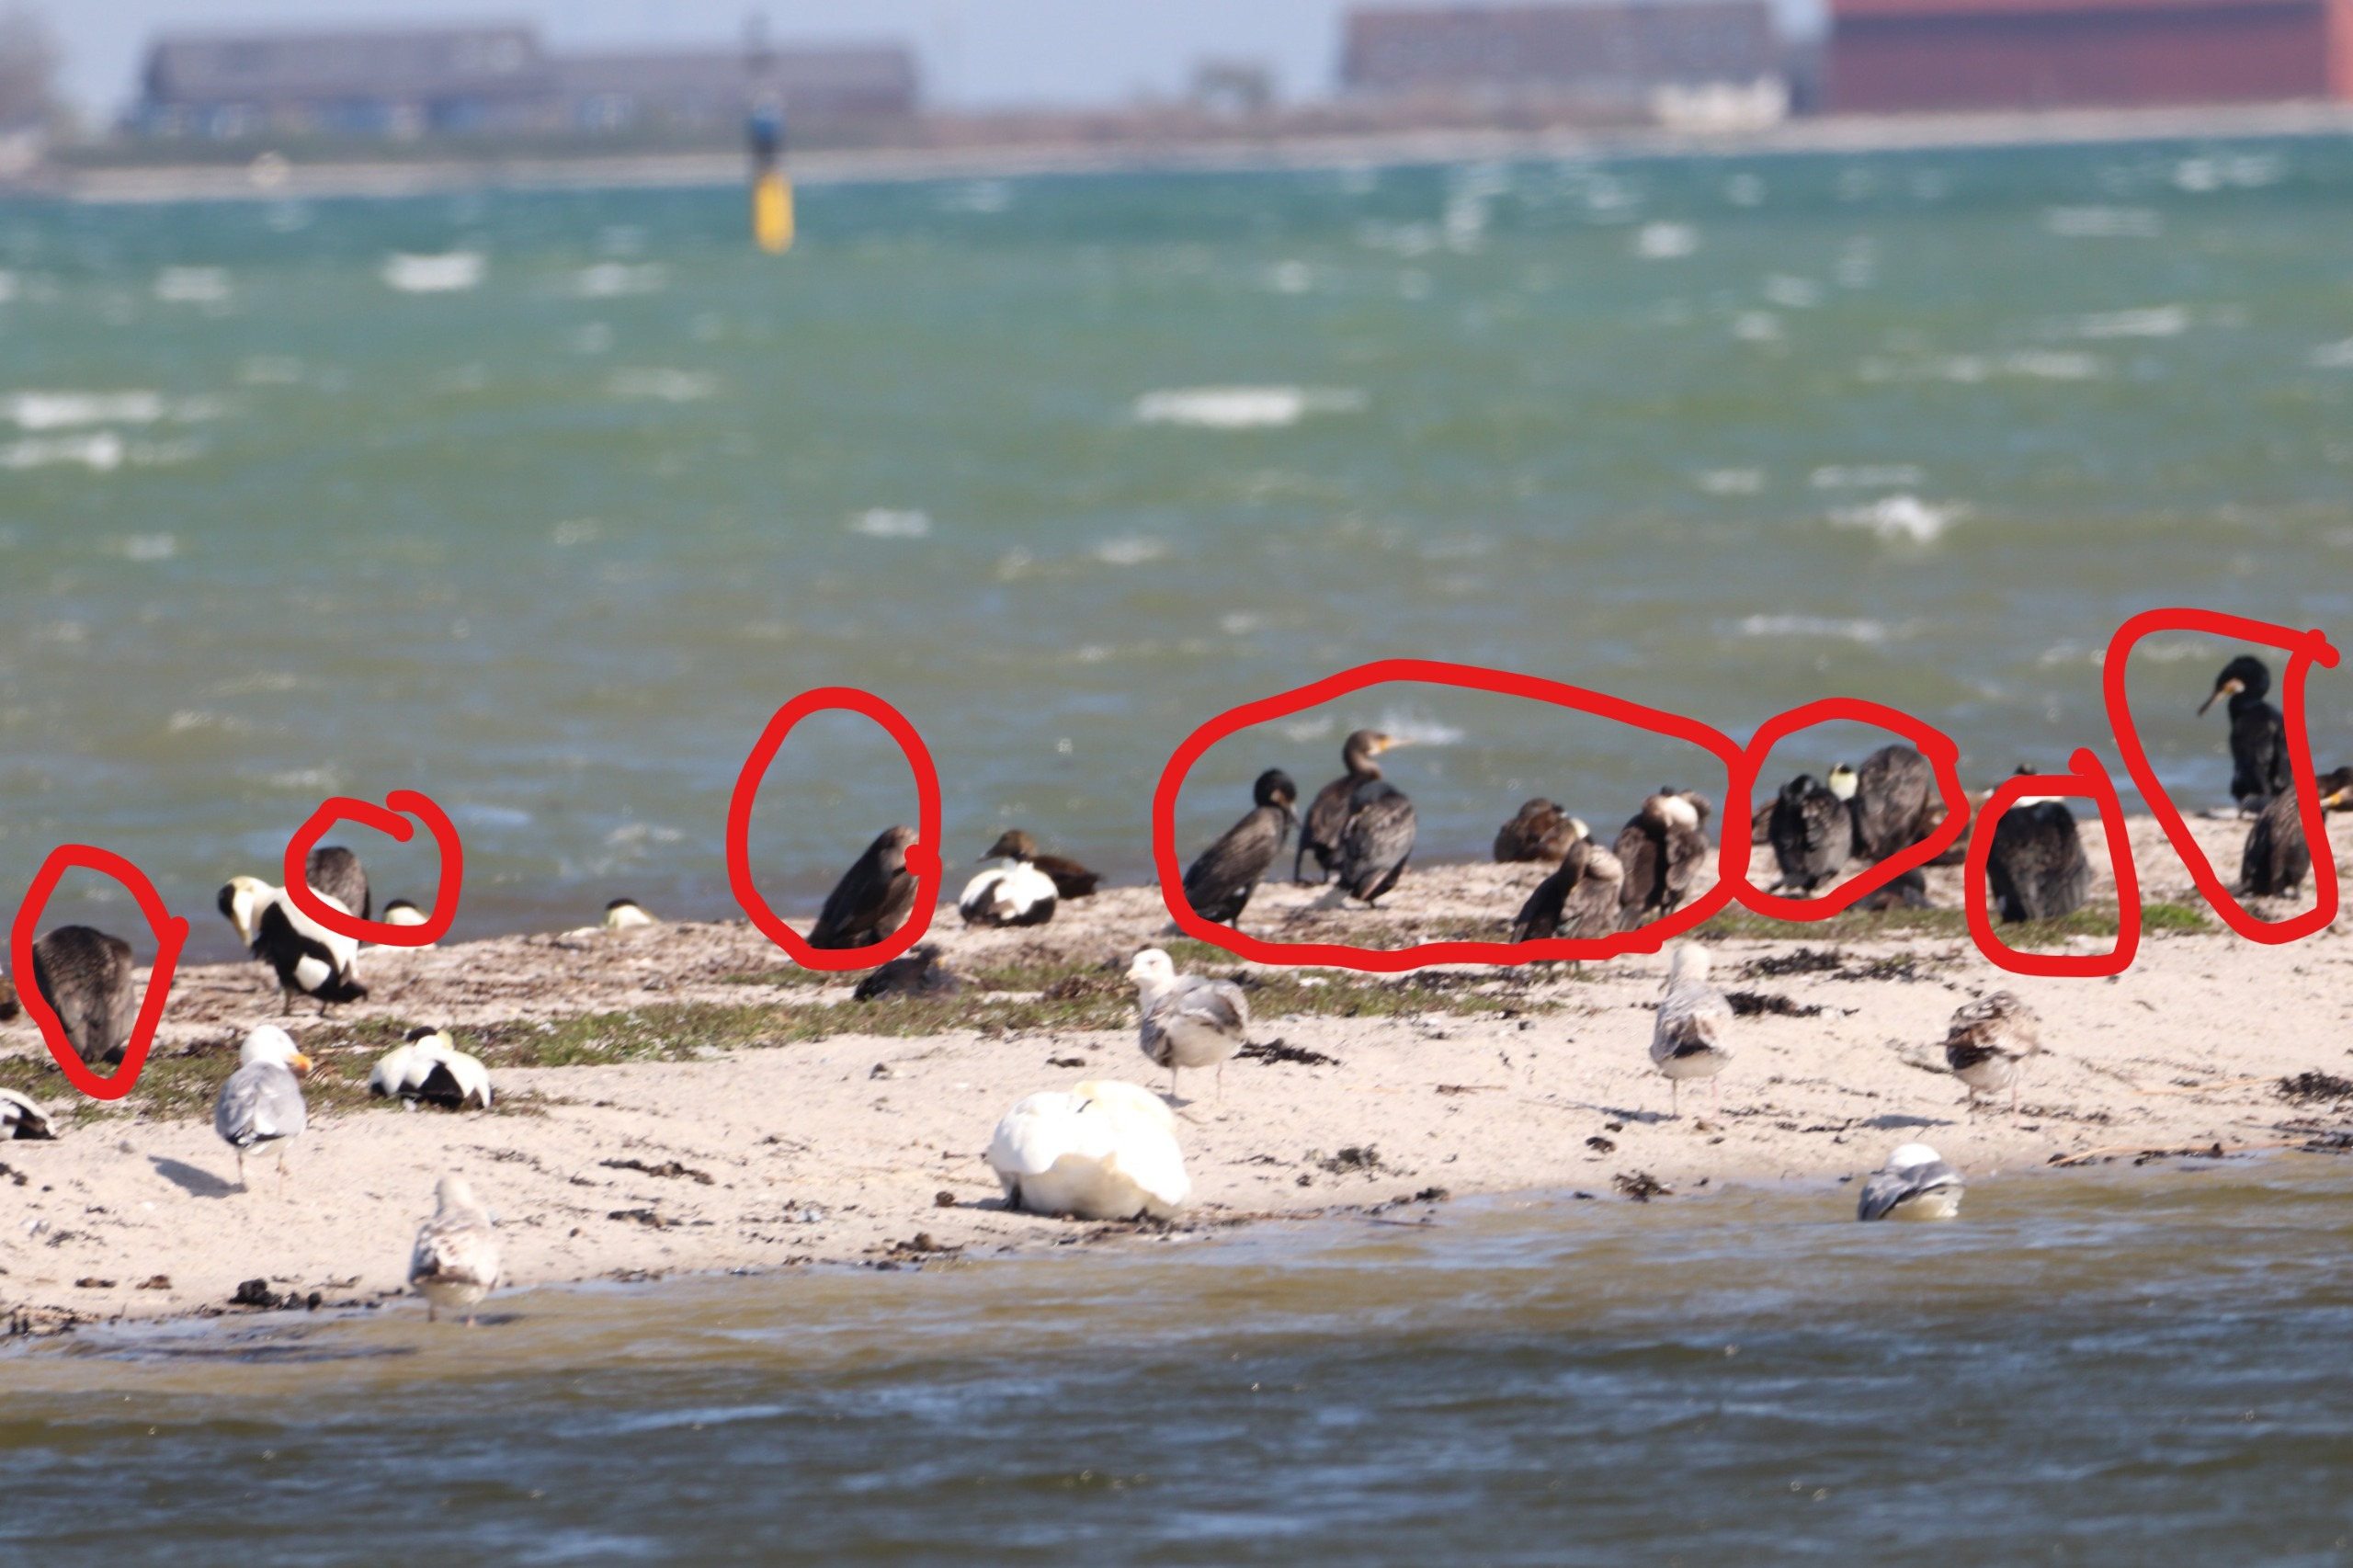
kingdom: Animalia
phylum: Chordata
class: Aves
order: Suliformes
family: Phalacrocoracidae
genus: Phalacrocorax
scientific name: Phalacrocorax carbo
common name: Skarv
